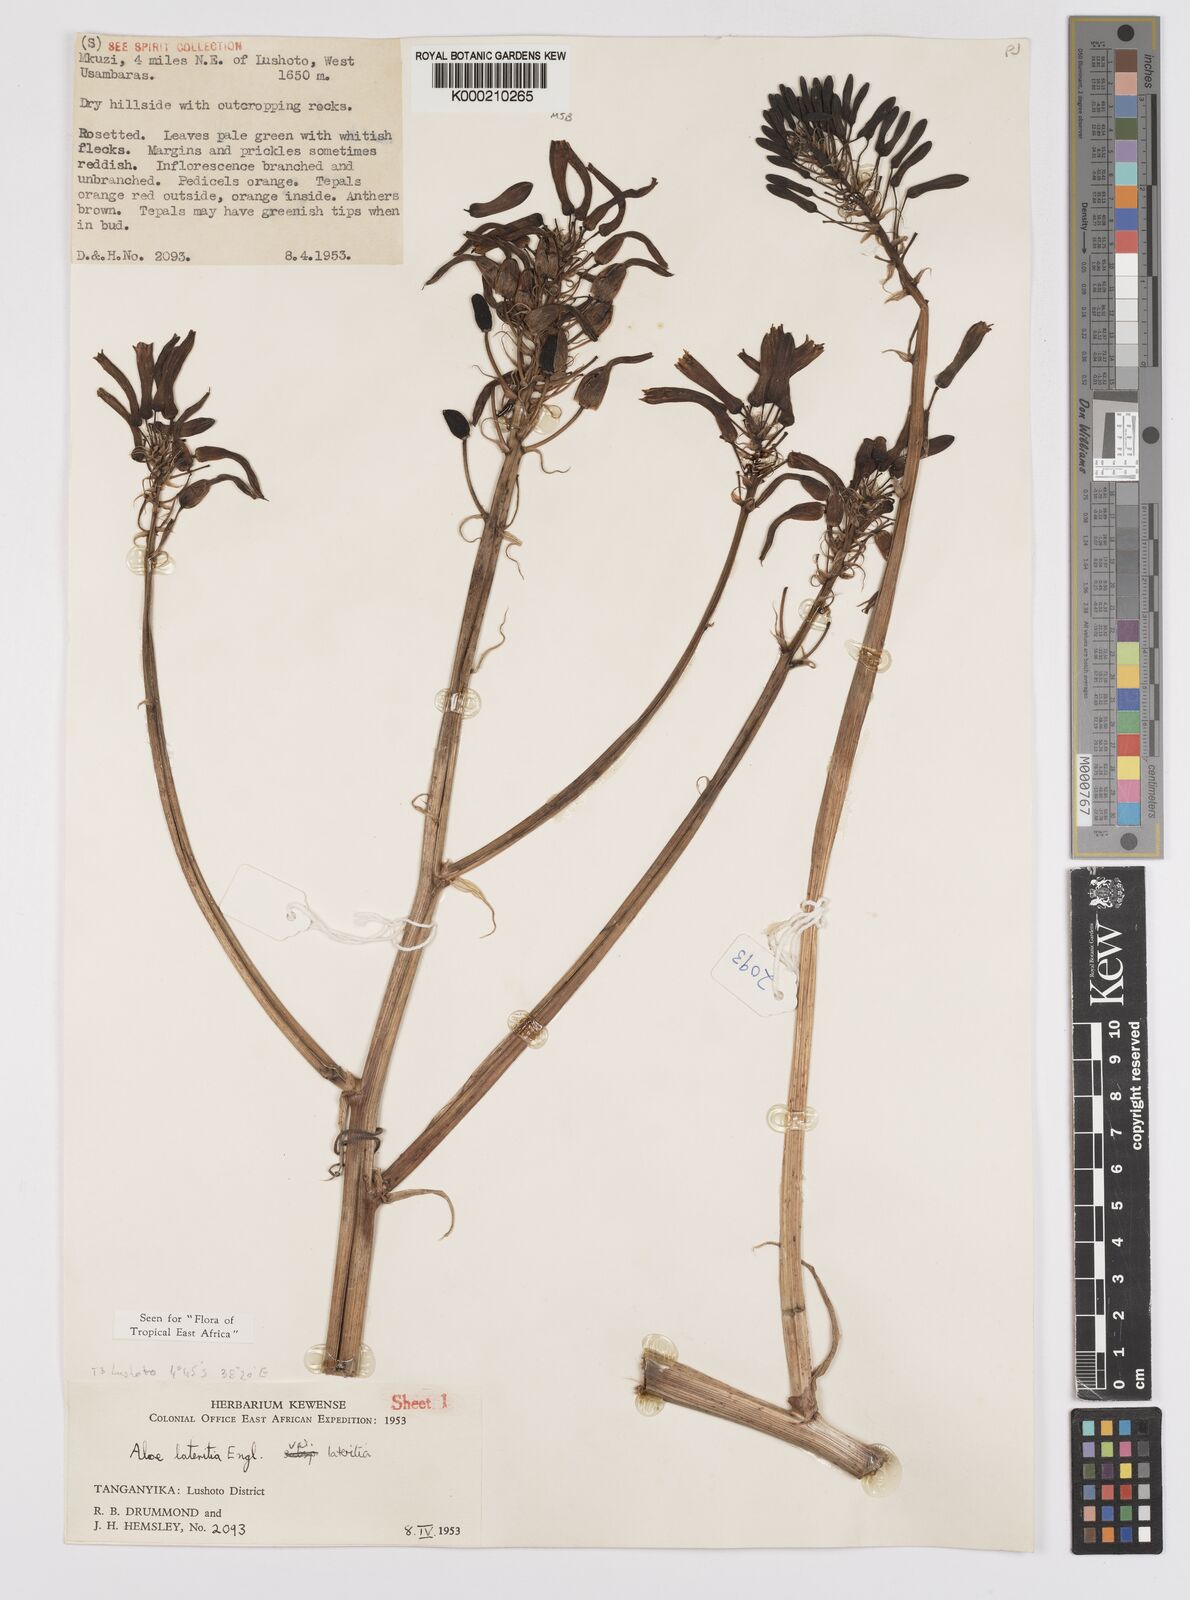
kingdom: Plantae
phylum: Tracheophyta
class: Liliopsida
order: Asparagales
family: Asphodelaceae
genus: Aloe
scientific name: Aloe lateritia
